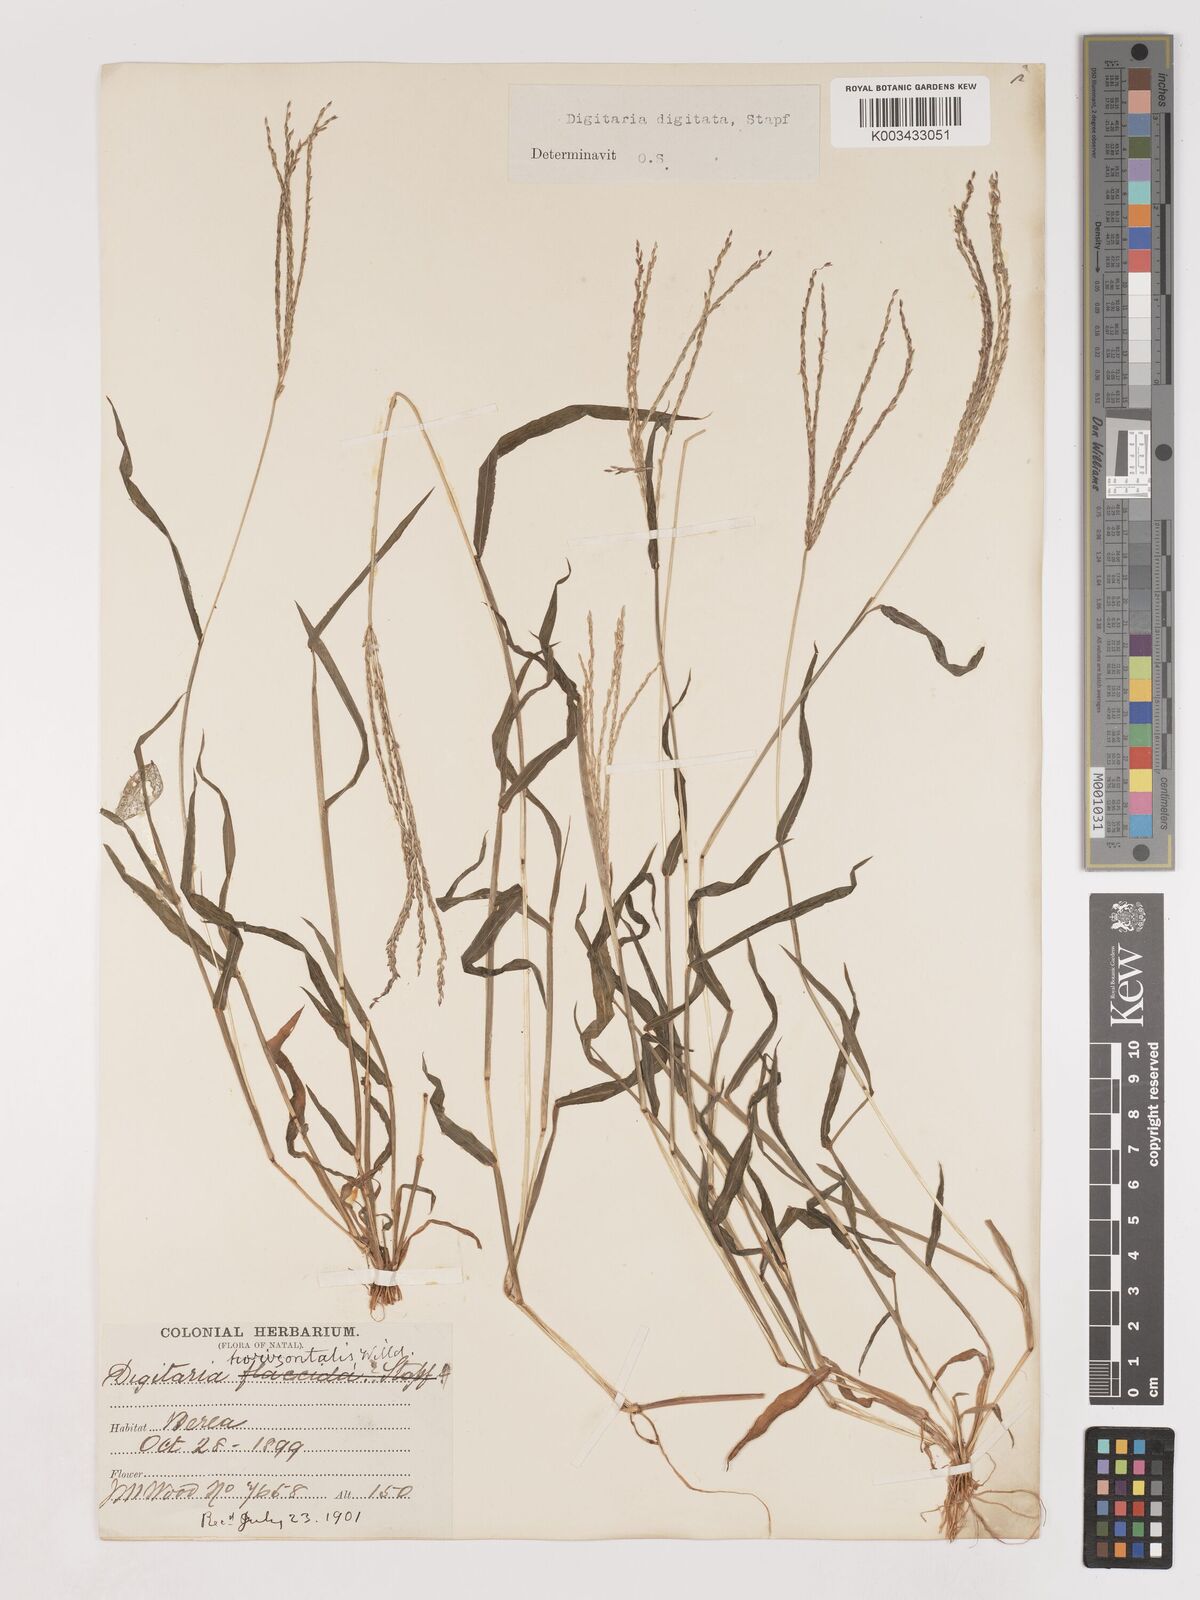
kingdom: Plantae
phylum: Tracheophyta
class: Liliopsida
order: Poales
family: Poaceae
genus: Digitaria
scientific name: Digitaria nuda
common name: Naked crabgrass
